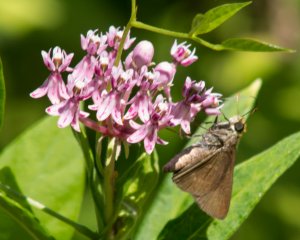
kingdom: Animalia
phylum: Arthropoda
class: Insecta
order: Lepidoptera
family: Hesperiidae
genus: Euphyes
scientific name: Euphyes vestris
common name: Dun Skipper
